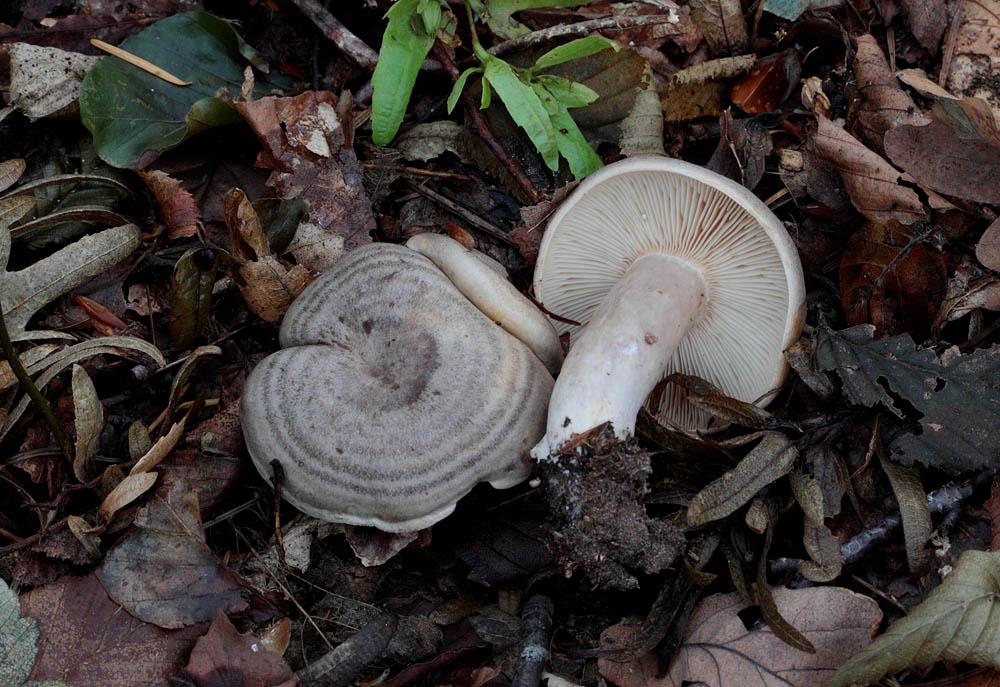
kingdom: Fungi
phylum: Basidiomycota
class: Agaricomycetes
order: Russulales
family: Russulaceae
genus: Lactarius
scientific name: Lactarius circellatus
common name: avnbøg-mælkehat
